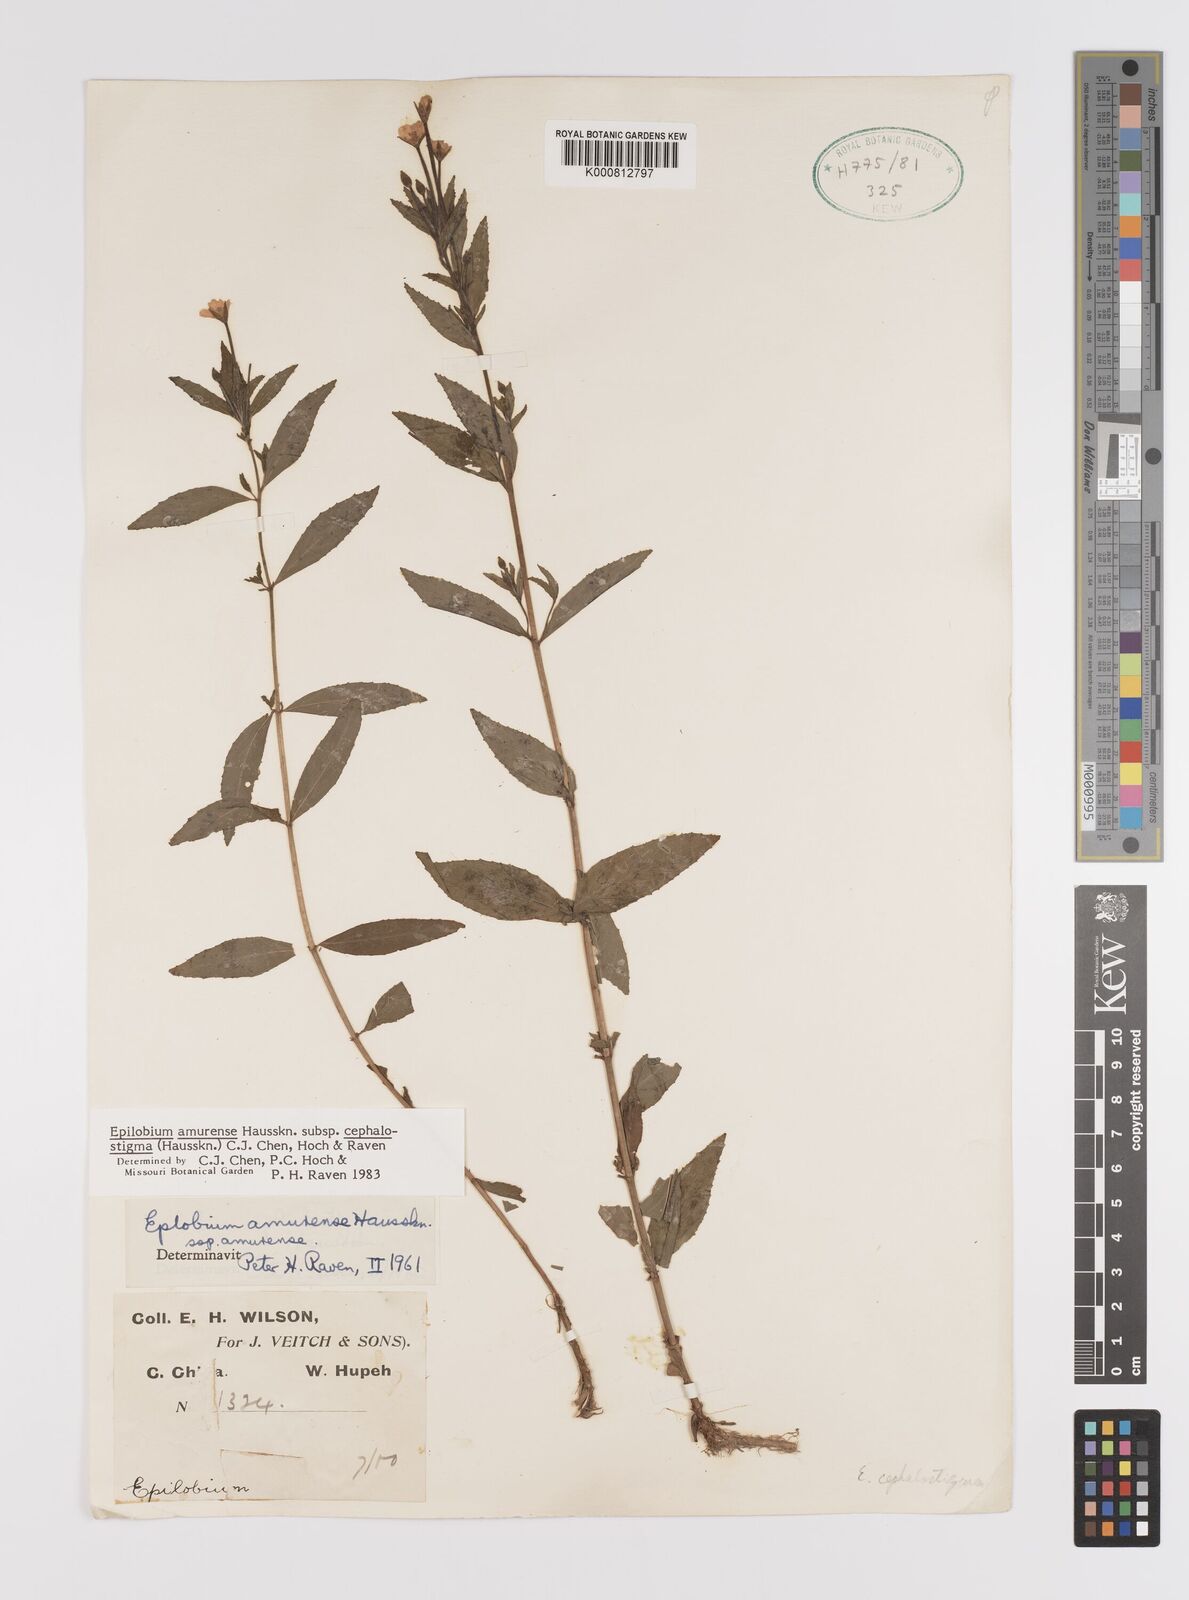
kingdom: Plantae
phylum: Tracheophyta
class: Magnoliopsida
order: Myrtales
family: Onagraceae
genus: Epilobium
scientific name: Epilobium amurense
